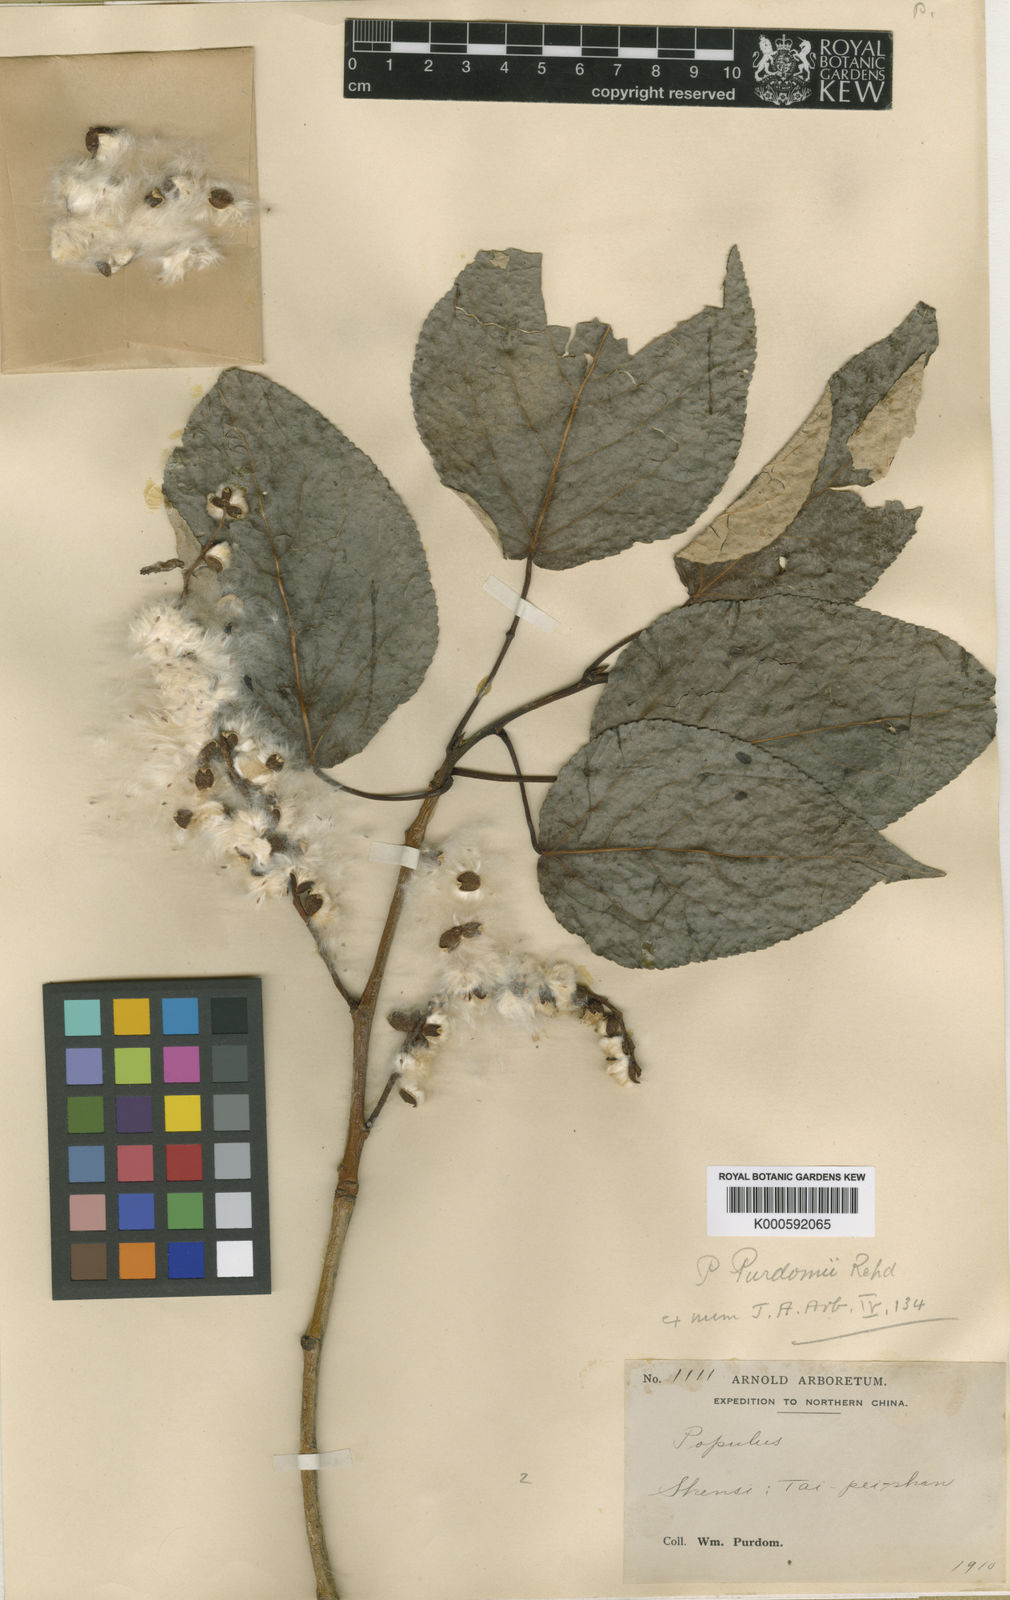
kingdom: Plantae
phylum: Tracheophyta
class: Magnoliopsida
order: Malpighiales
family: Salicaceae
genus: Populus
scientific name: Populus ciliata
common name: Himalayan poplar
